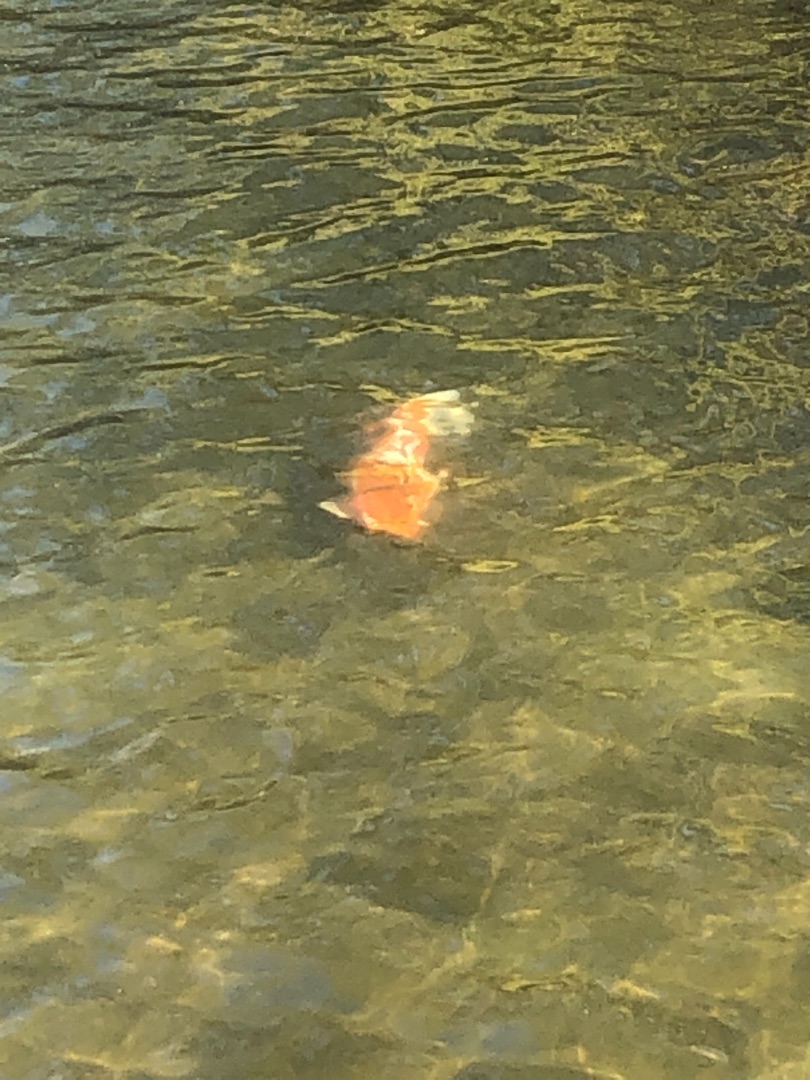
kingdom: Animalia
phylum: Chordata
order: Cypriniformes
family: Cyprinidae
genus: Cyprinus
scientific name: Cyprinus carpio
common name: Karpe
